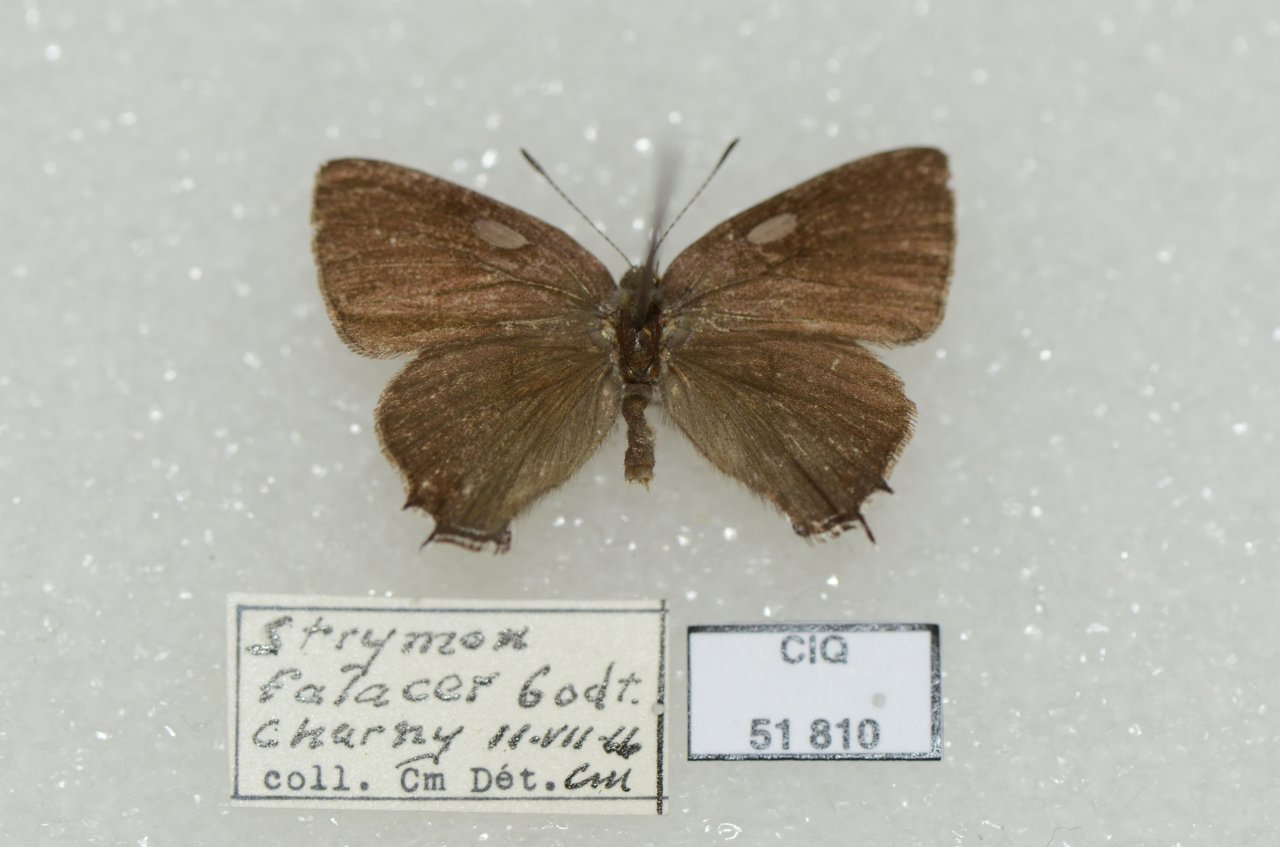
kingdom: Animalia
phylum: Arthropoda
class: Insecta
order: Lepidoptera
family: Lycaenidae
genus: Satyrium
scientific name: Satyrium calanus
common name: Banded Hairstreak
